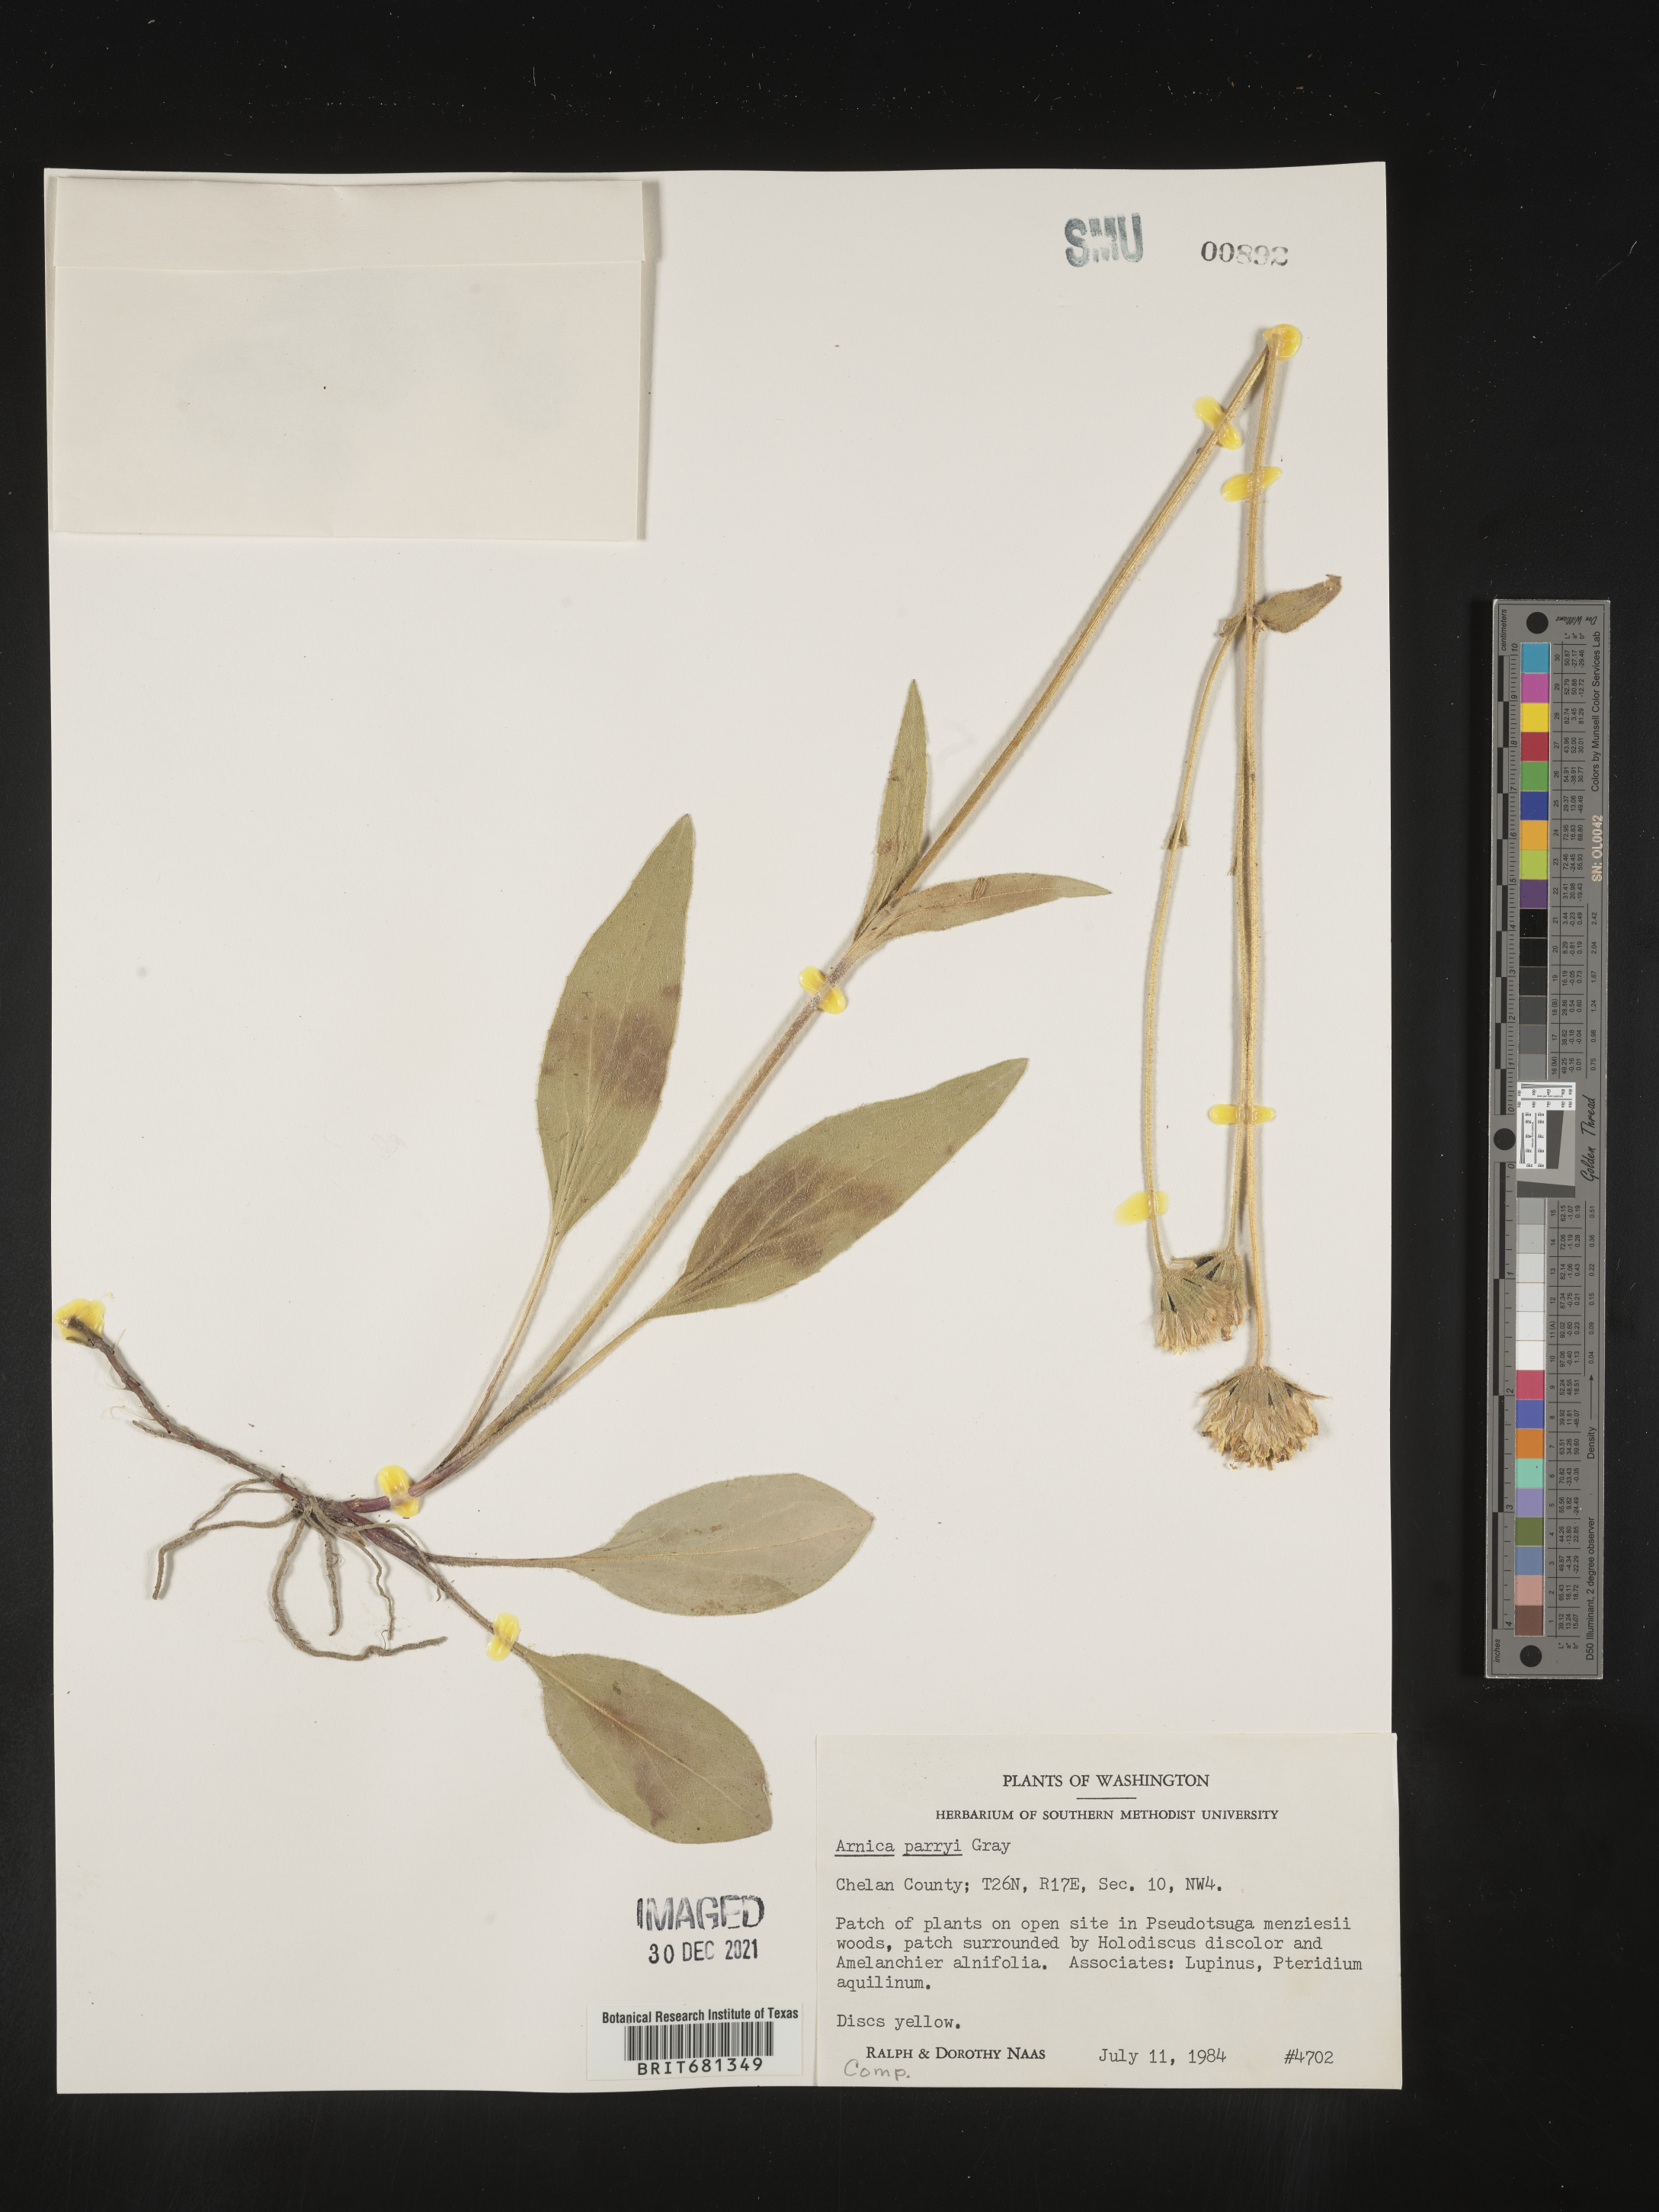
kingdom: Plantae
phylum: Tracheophyta
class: Magnoliopsida
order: Asterales
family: Asteraceae
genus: Arnica
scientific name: Arnica parryi
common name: Parry's arnica
